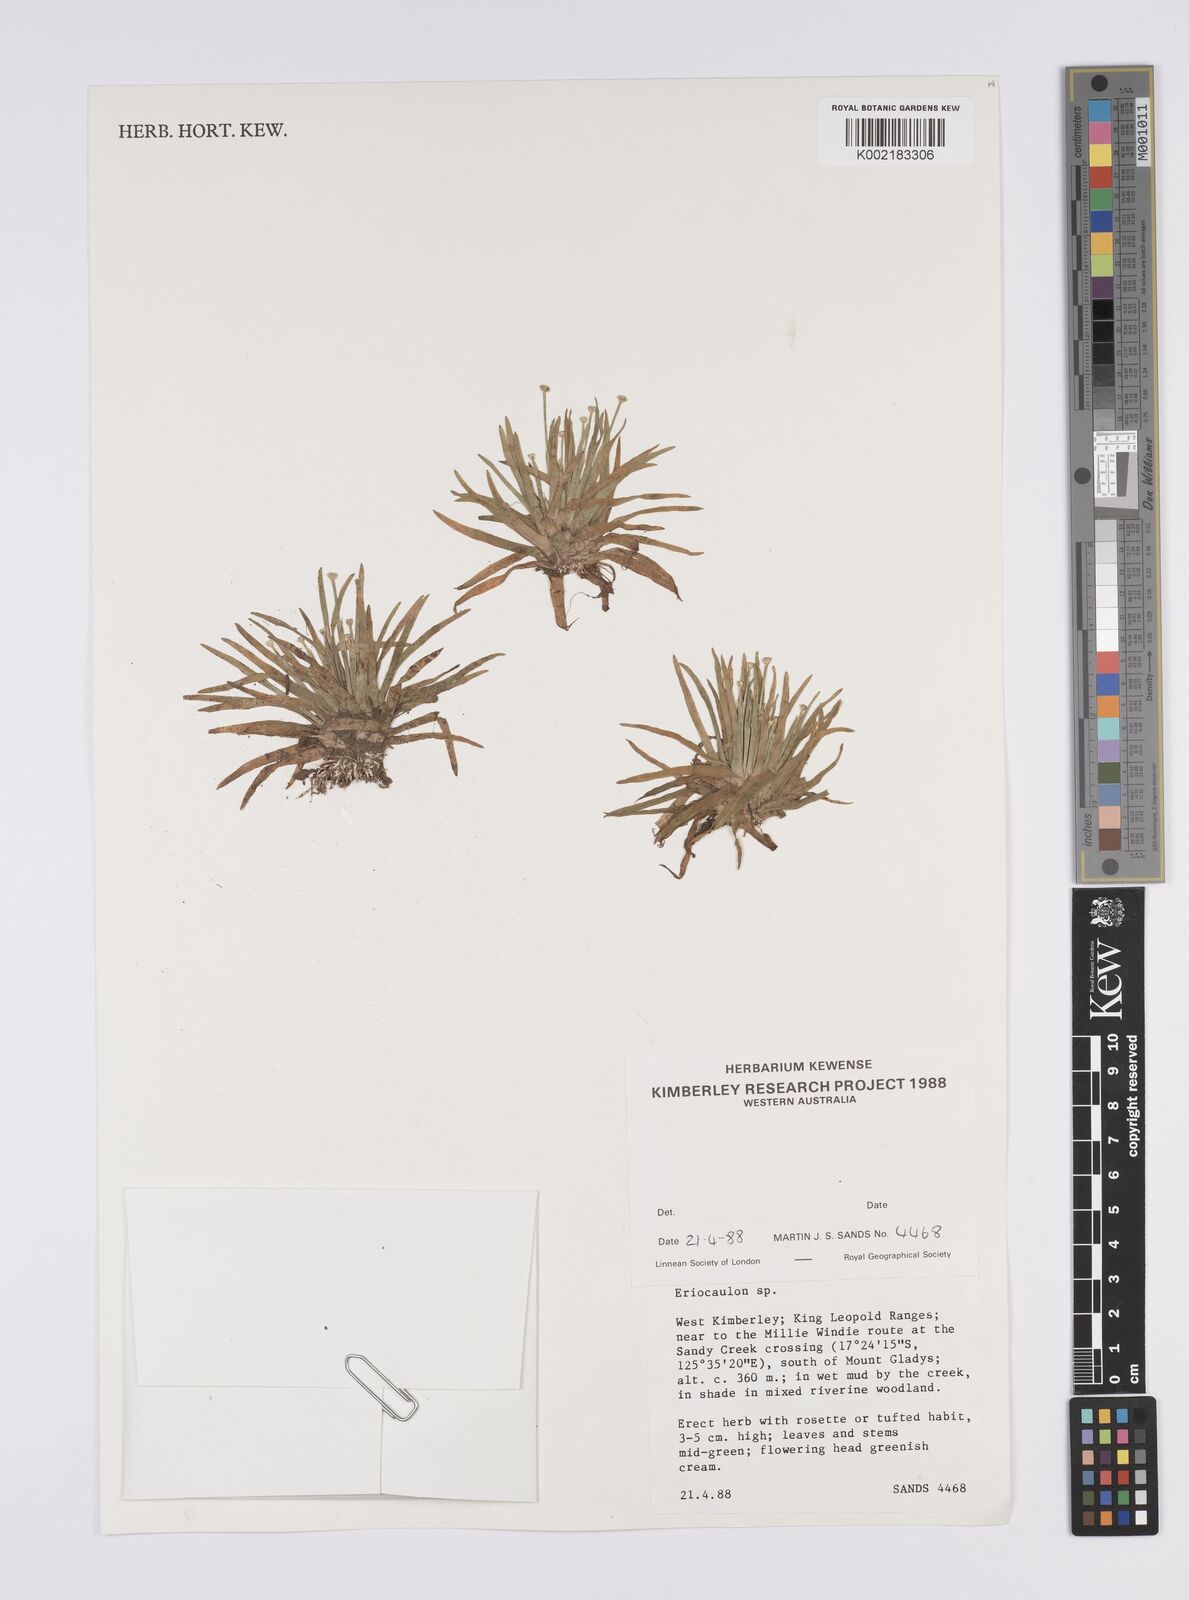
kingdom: Plantae
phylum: Tracheophyta
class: Liliopsida
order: Poales
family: Eriocaulaceae
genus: Eriocaulon
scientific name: Eriocaulon
